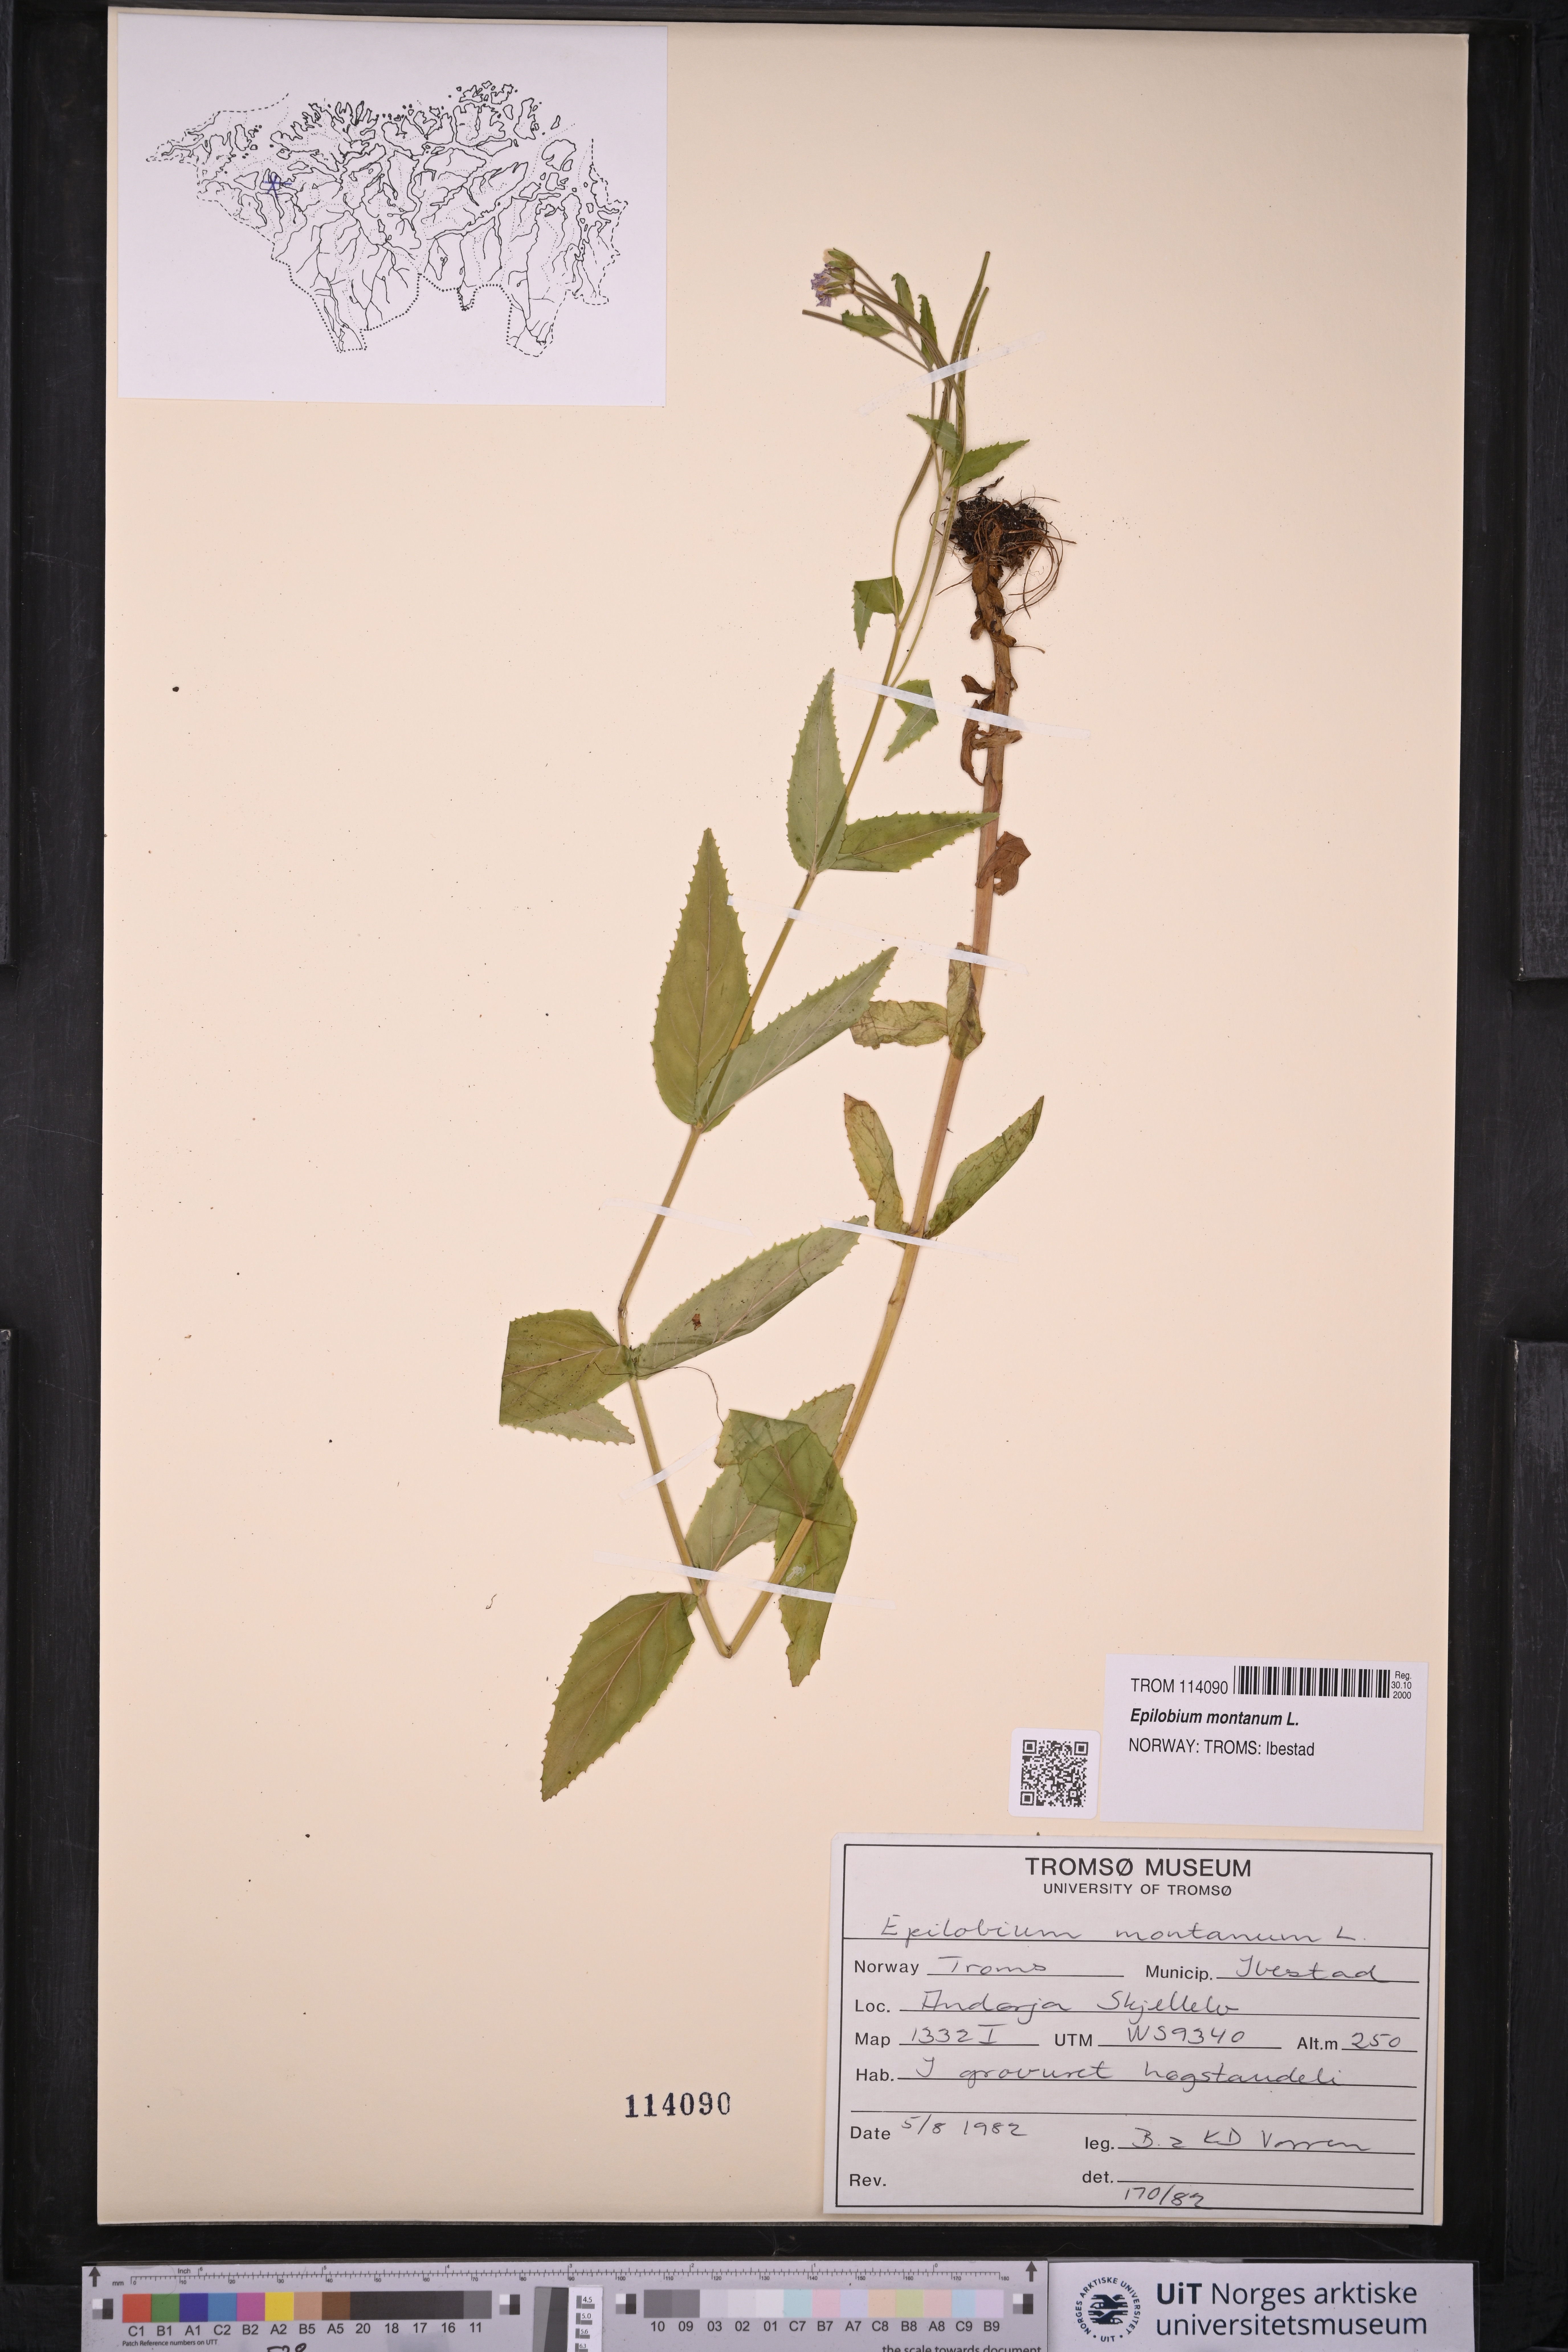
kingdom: Plantae
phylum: Tracheophyta
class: Magnoliopsida
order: Myrtales
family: Onagraceae
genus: Epilobium
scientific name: Epilobium montanum
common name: Broad-leaved willowherb
